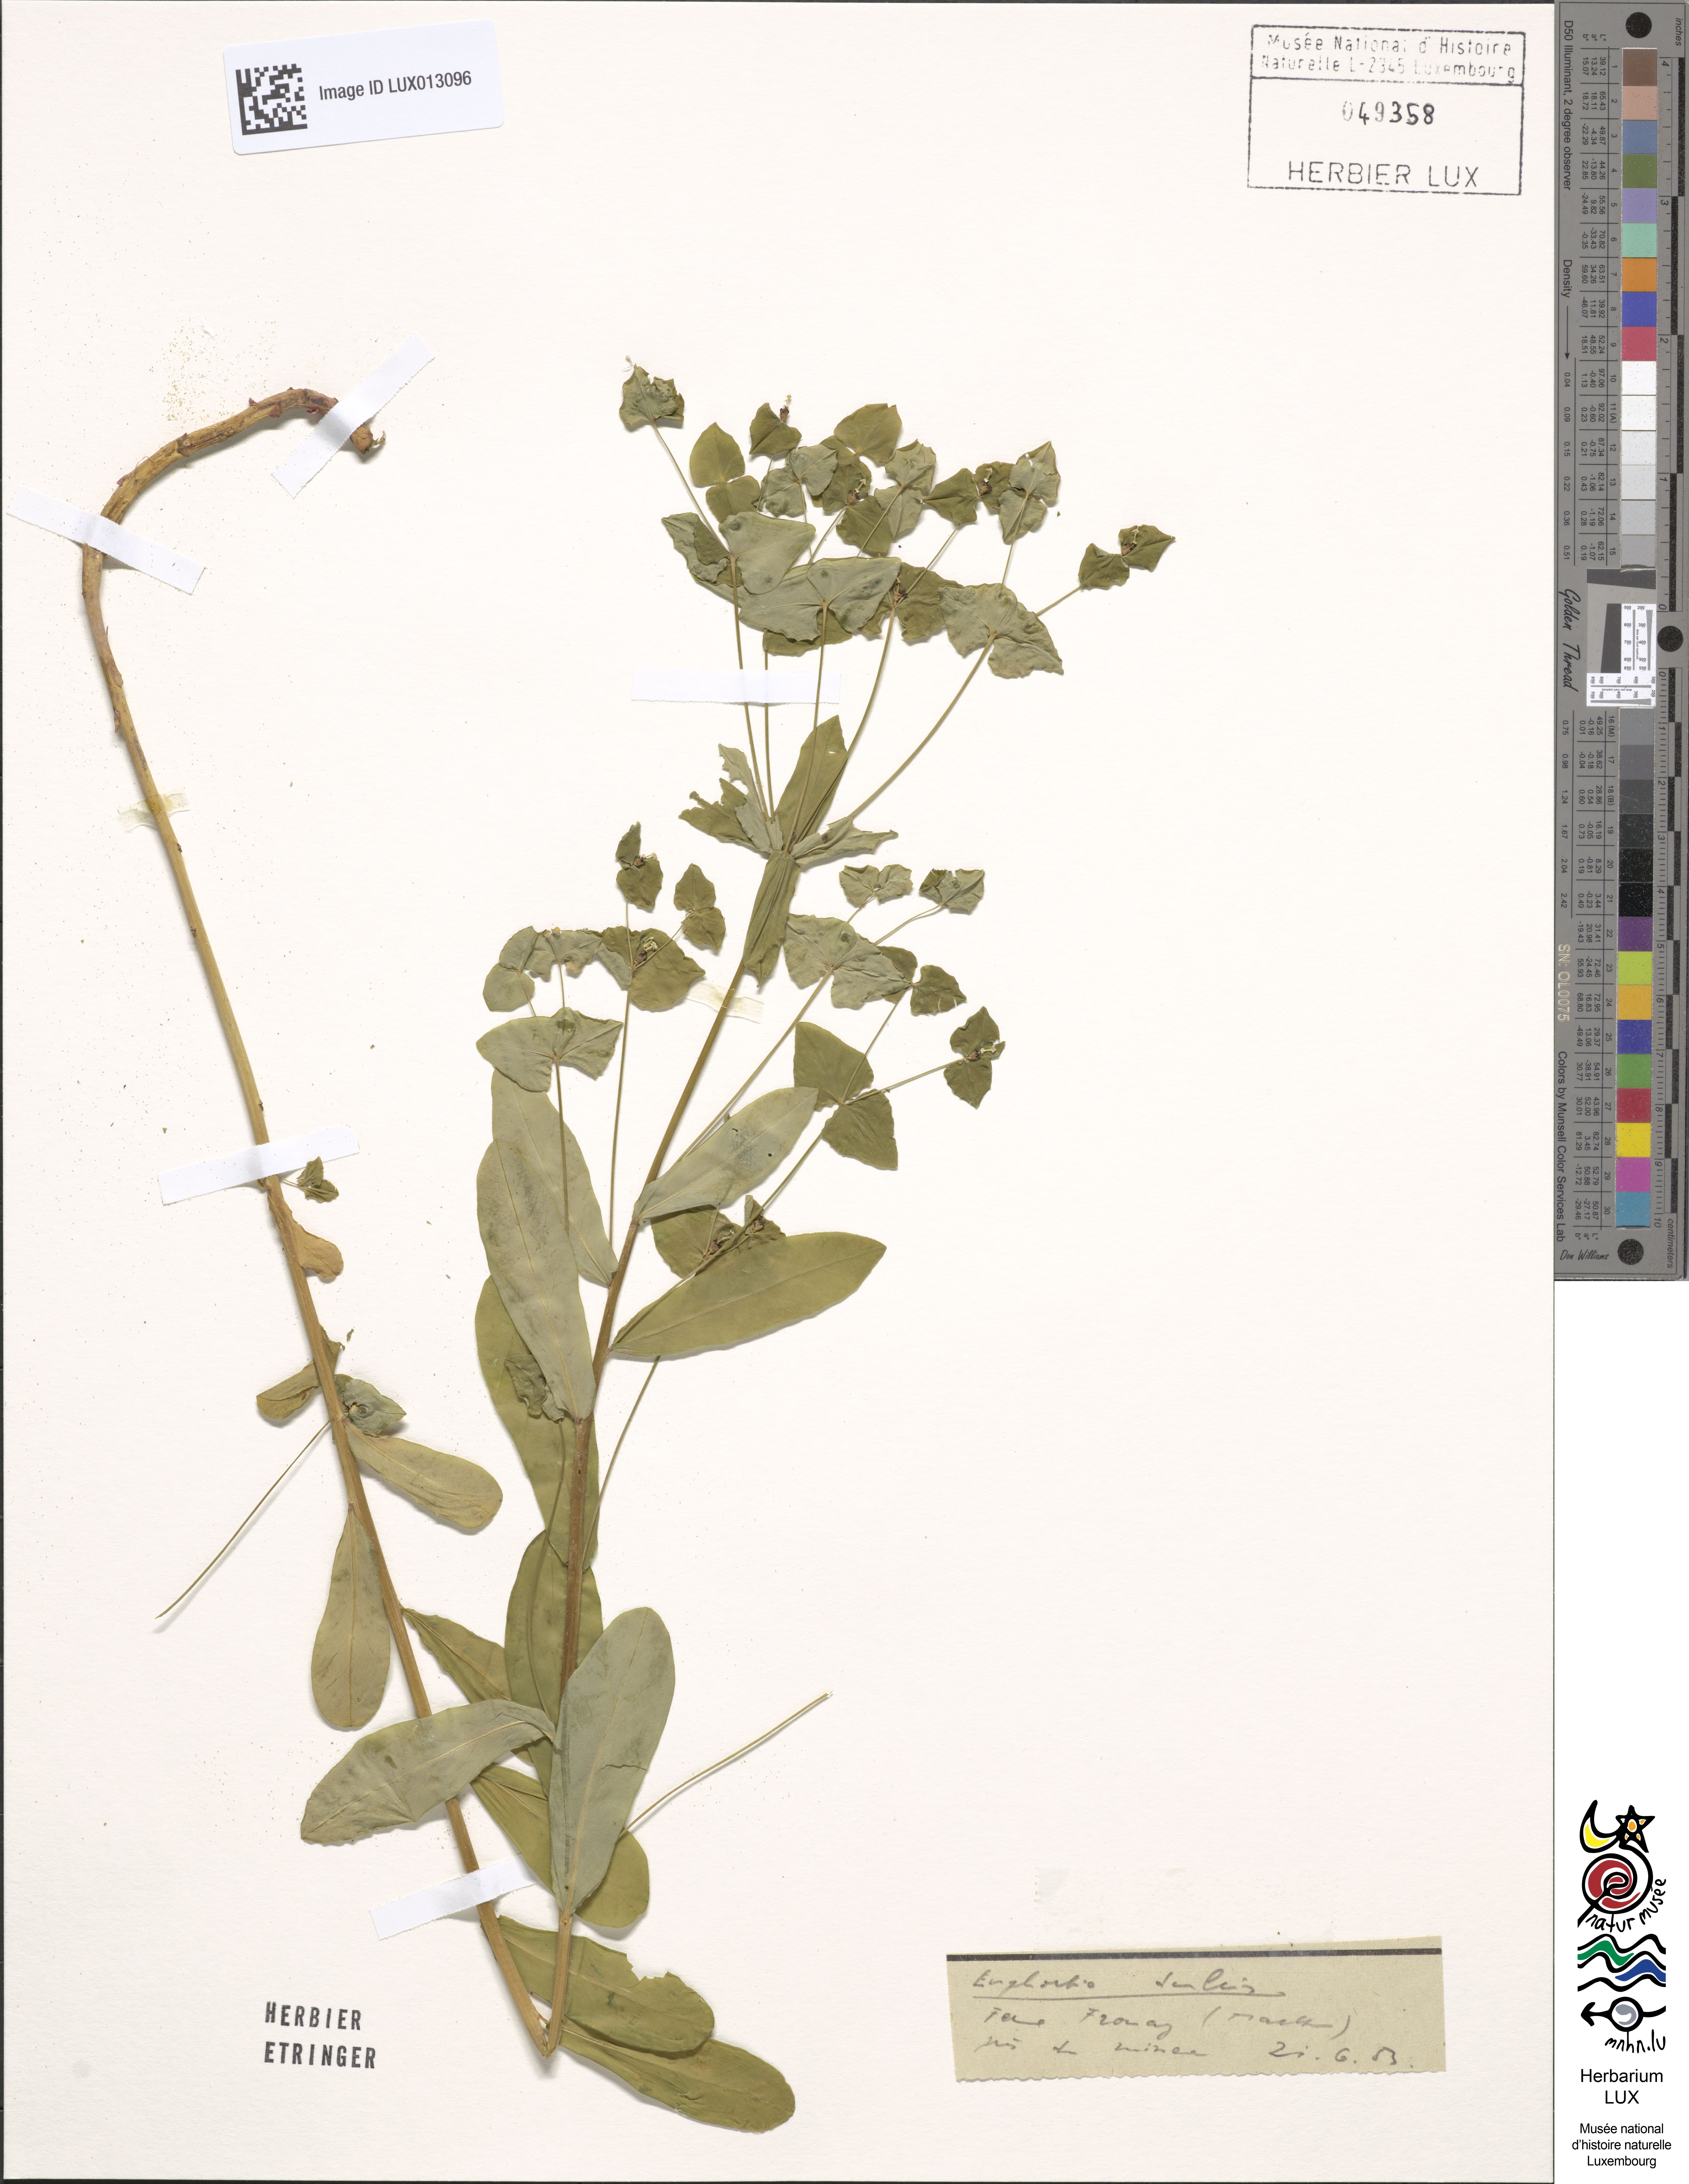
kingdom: Plantae
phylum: Tracheophyta
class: Magnoliopsida
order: Malpighiales
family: Euphorbiaceae
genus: Euphorbia
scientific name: Euphorbia dulcis
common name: Sweet spurge
